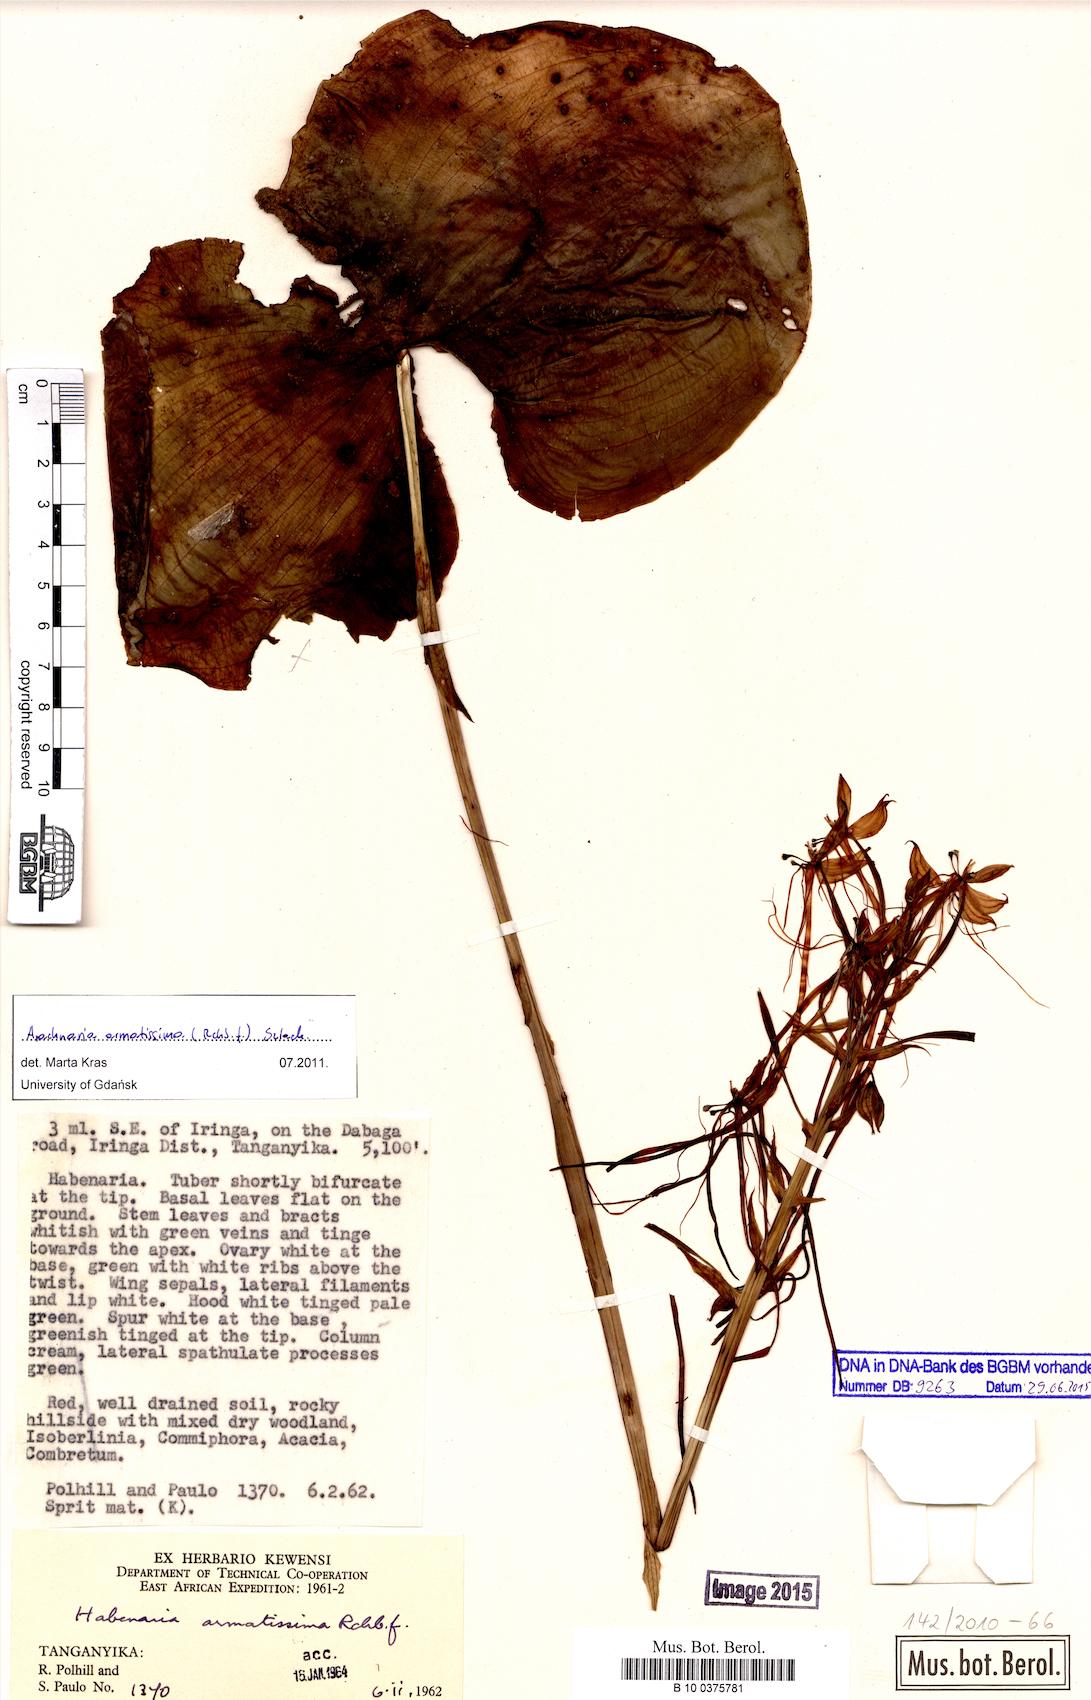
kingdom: Plantae
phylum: Tracheophyta
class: Liliopsida
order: Asparagales
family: Orchidaceae
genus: Habenaria
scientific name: Habenaria armatissima
